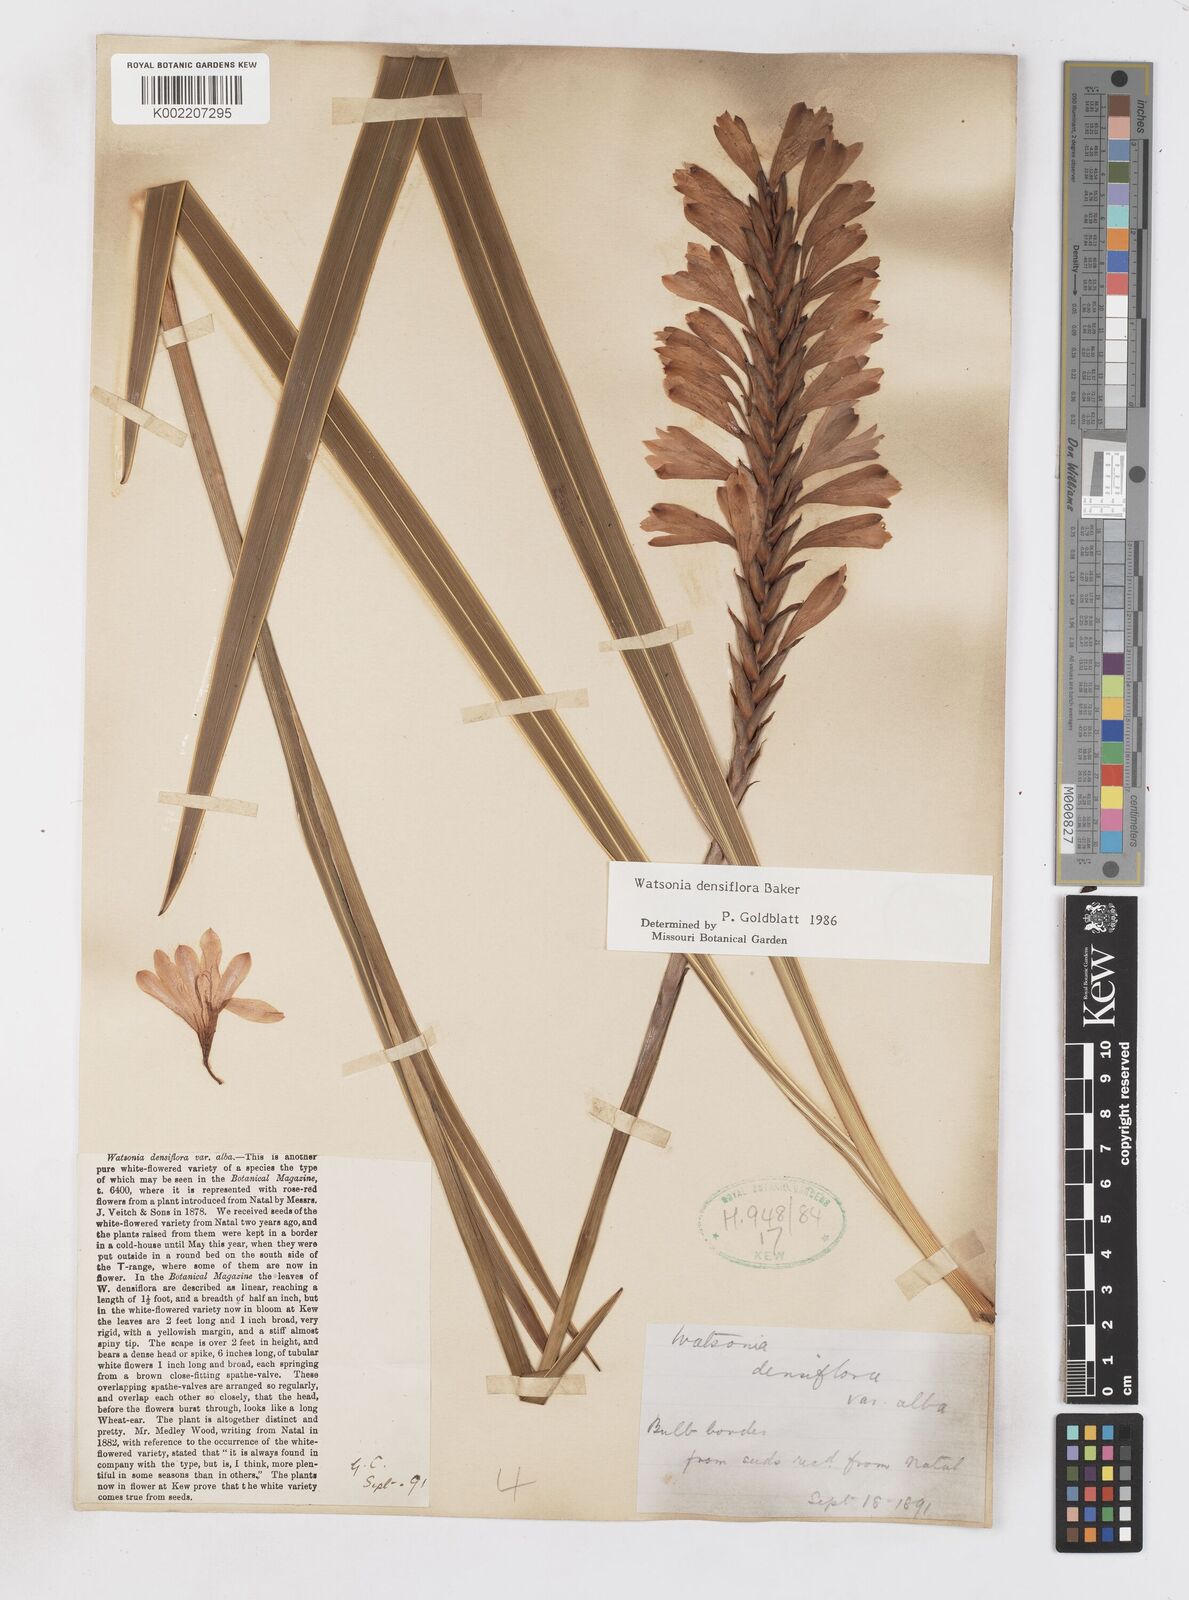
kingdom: Plantae
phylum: Tracheophyta
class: Liliopsida
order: Asparagales
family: Iridaceae
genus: Watsonia
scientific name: Watsonia densiflora
